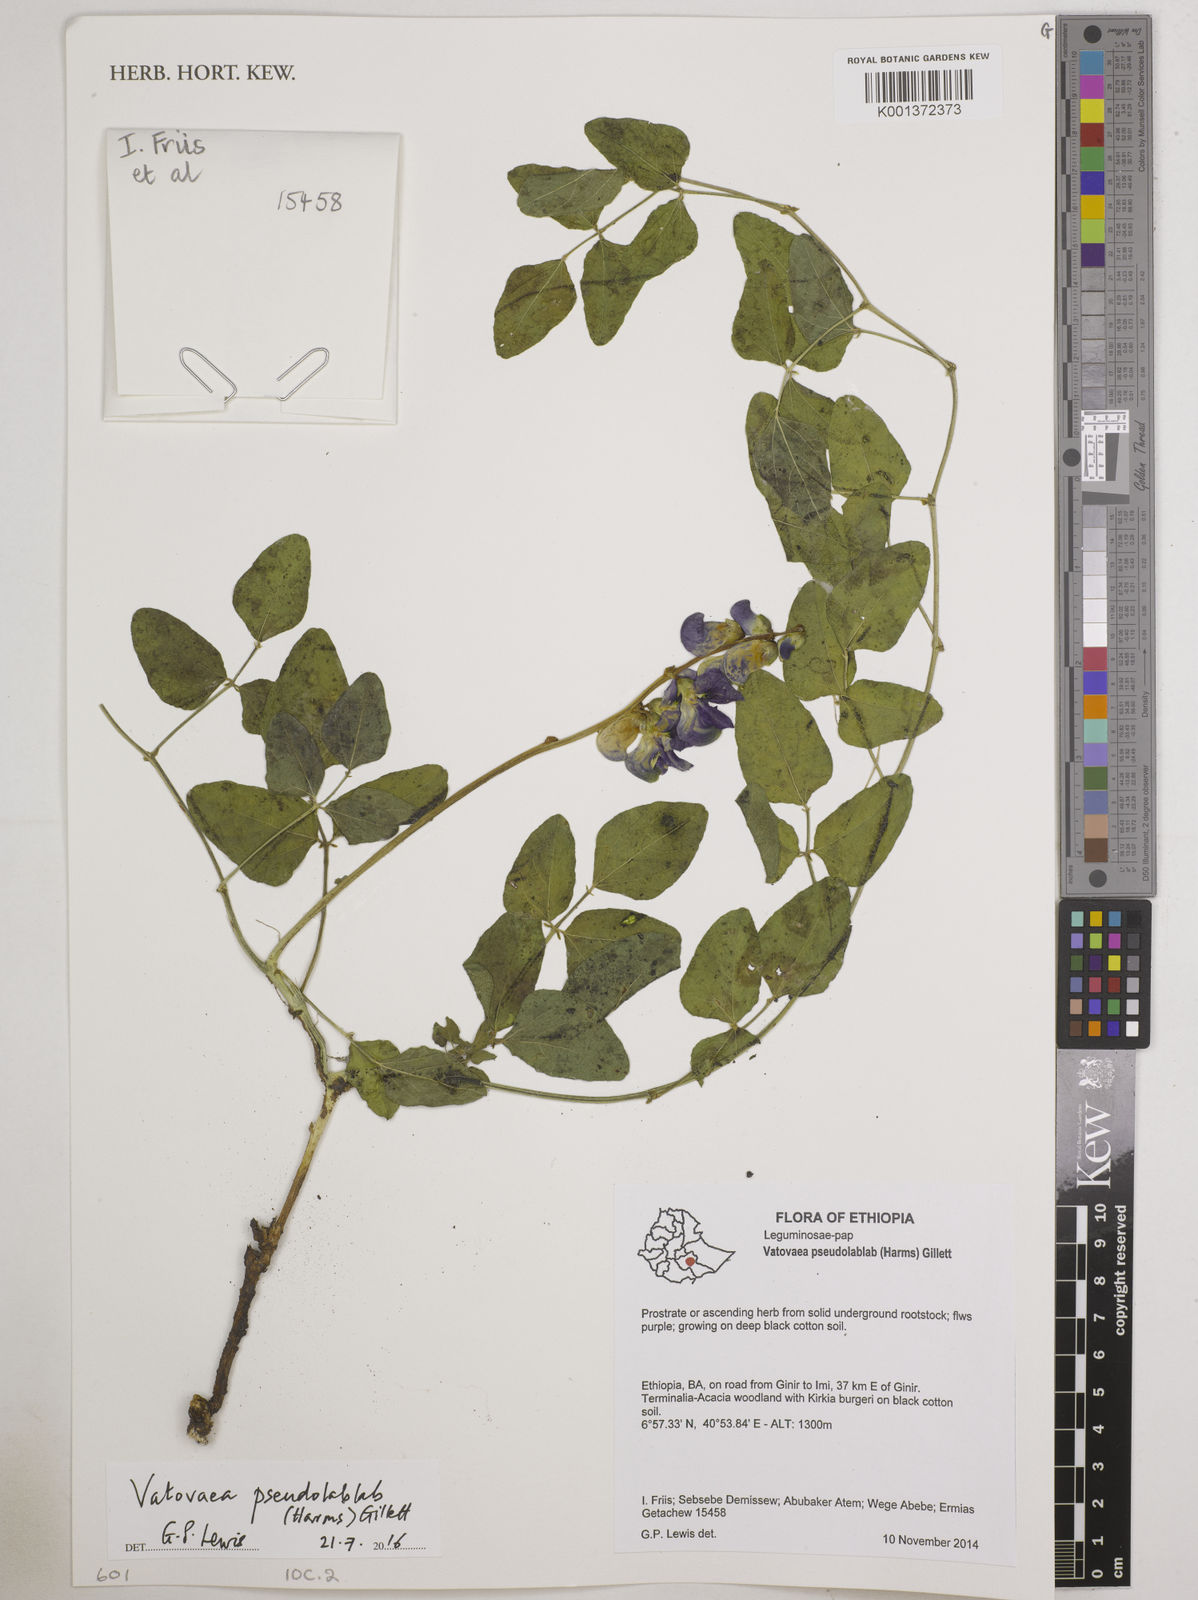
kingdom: Plantae
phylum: Tracheophyta
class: Magnoliopsida
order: Fabales
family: Fabaceae
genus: Vatovaea
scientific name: Vatovaea pseudolablab
